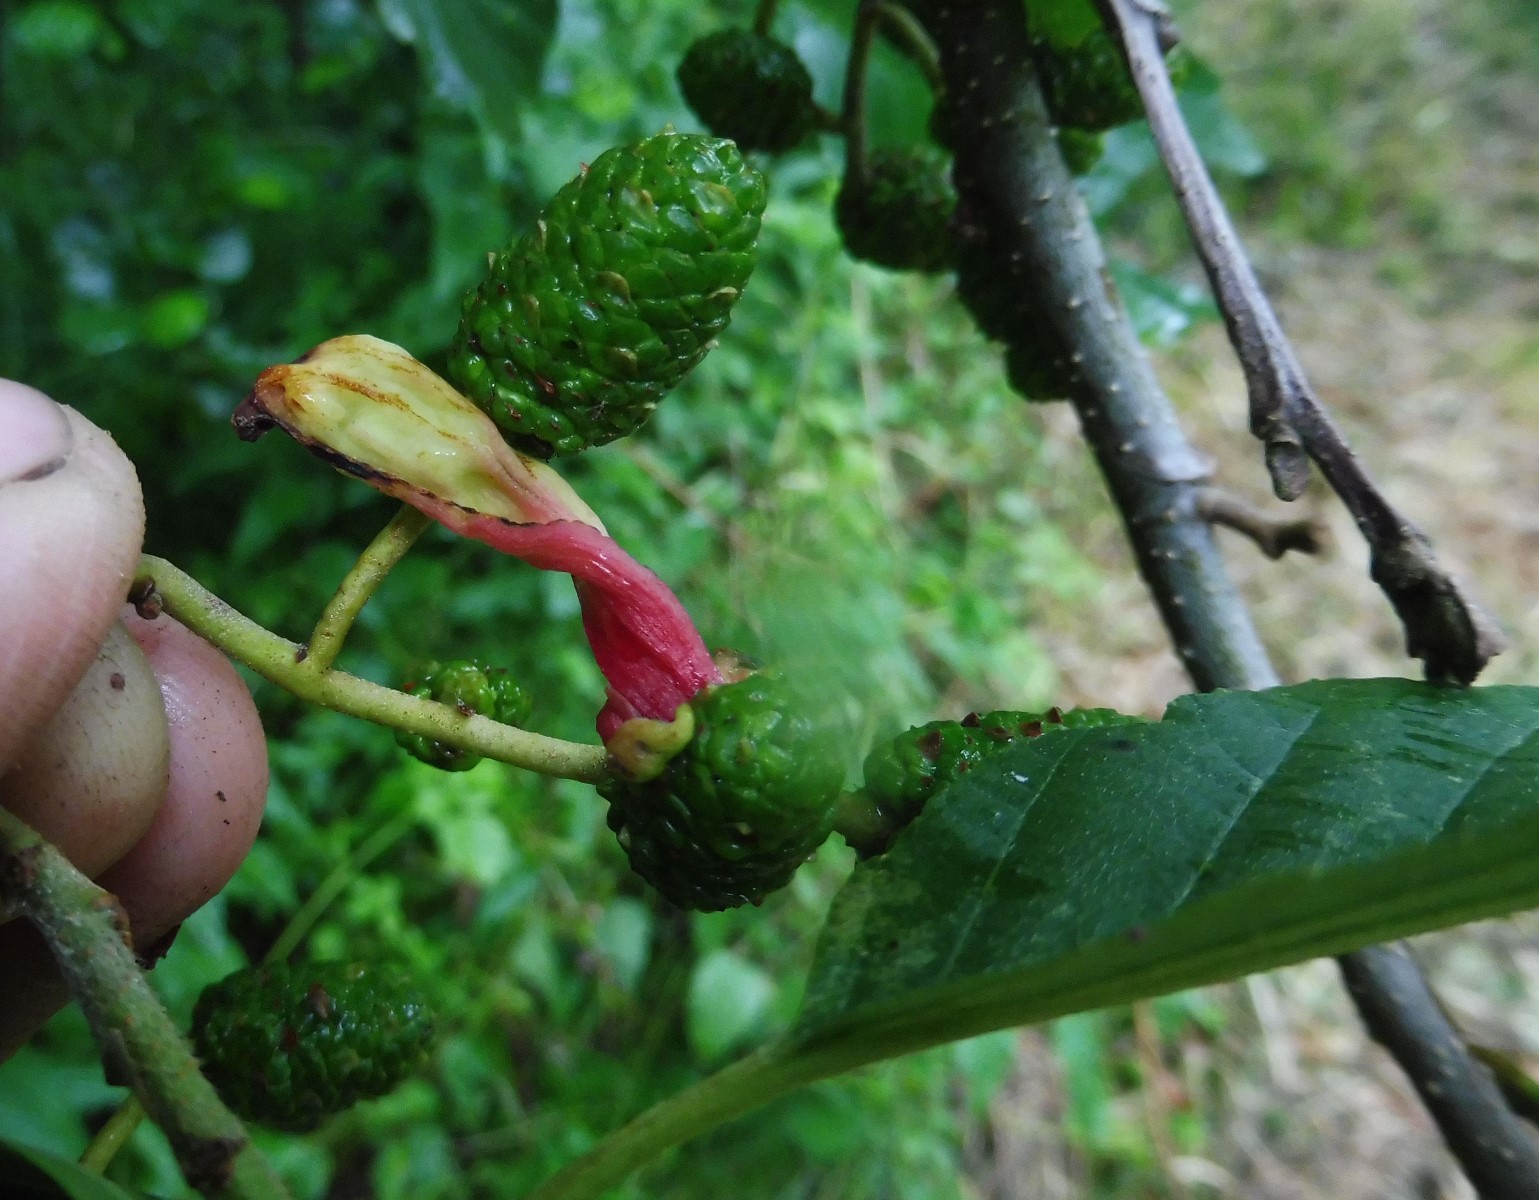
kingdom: Fungi
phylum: Ascomycota
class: Taphrinomycetes
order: Taphrinales
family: Taphrinaceae
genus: Taphrina
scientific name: Taphrina alni
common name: Alder tongue
